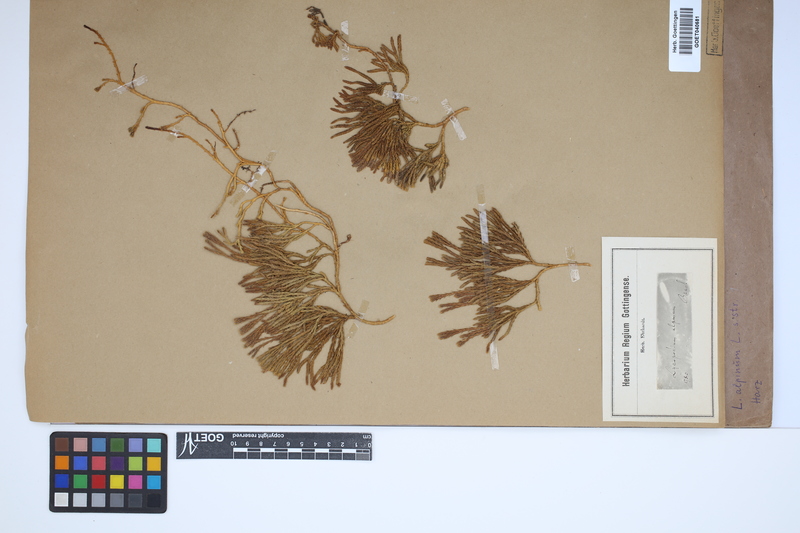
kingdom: Plantae
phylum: Tracheophyta
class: Lycopodiopsida
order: Lycopodiales
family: Lycopodiaceae
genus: Diphasiastrum
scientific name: Diphasiastrum alpinum
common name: Alpine clubmoss
